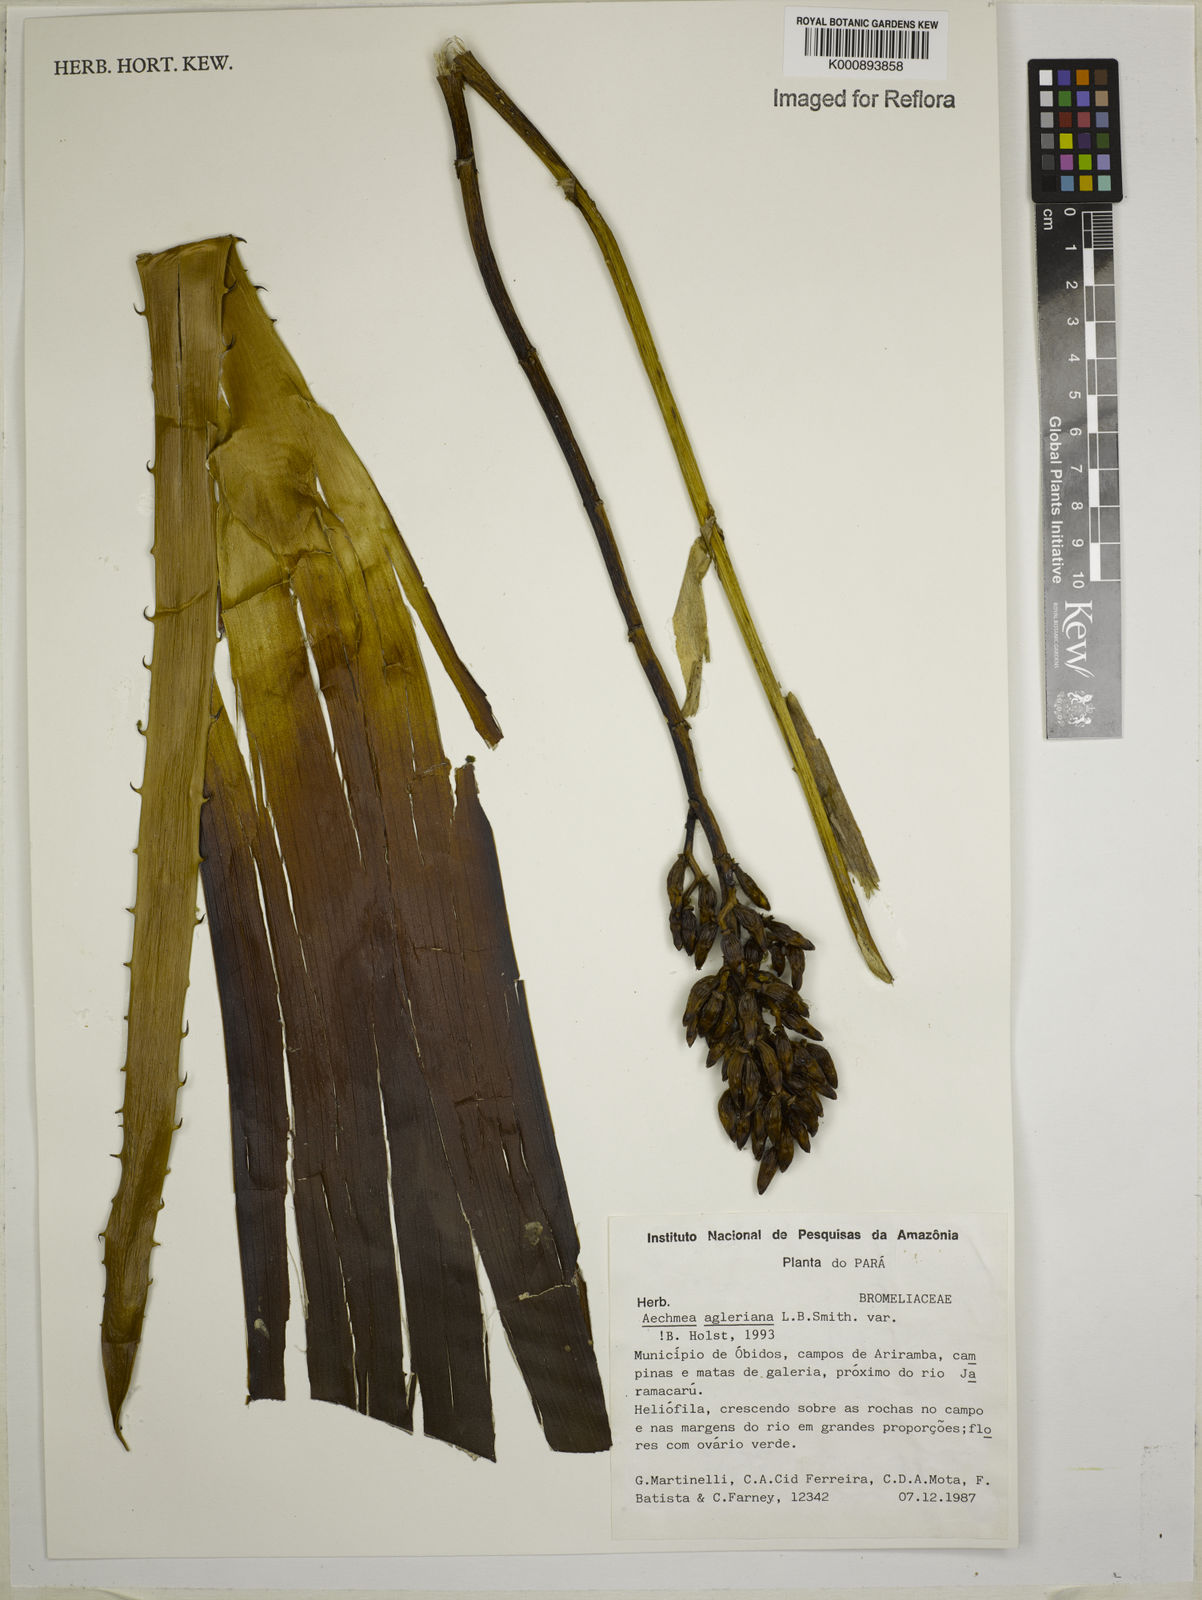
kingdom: Plantae
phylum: Tracheophyta
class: Liliopsida
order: Poales
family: Bromeliaceae
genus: Aechmea
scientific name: Aechmea
